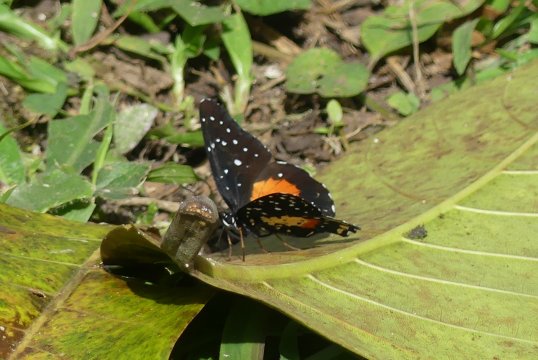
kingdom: Animalia
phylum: Arthropoda
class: Insecta
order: Lepidoptera
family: Nymphalidae
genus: Chlosyne
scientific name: Chlosyne janais
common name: Crimson Patch
